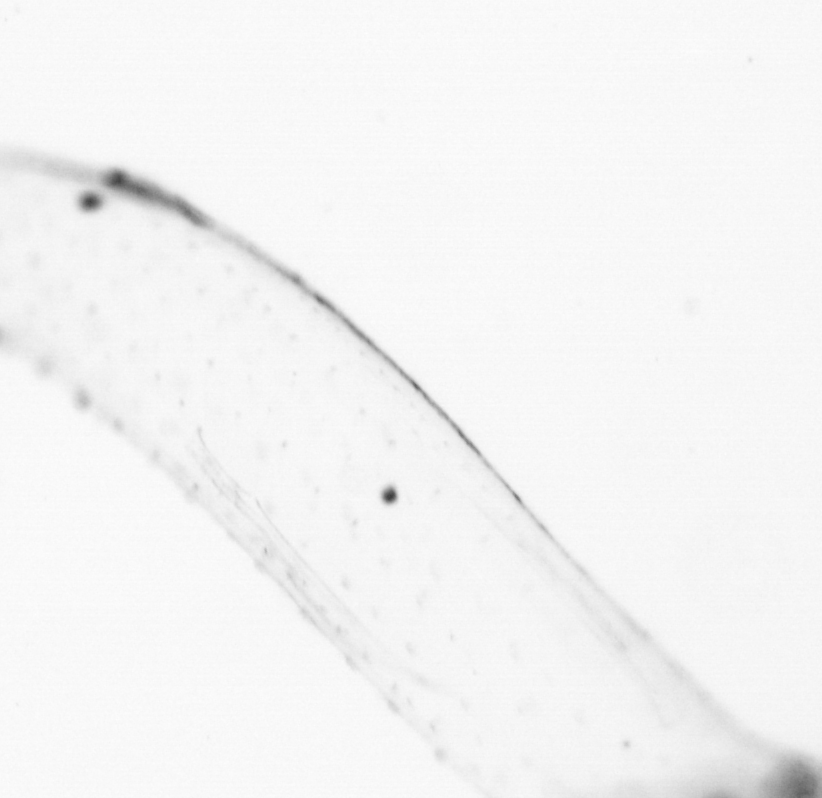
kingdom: Animalia
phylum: Chaetognatha
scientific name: Chaetognatha
